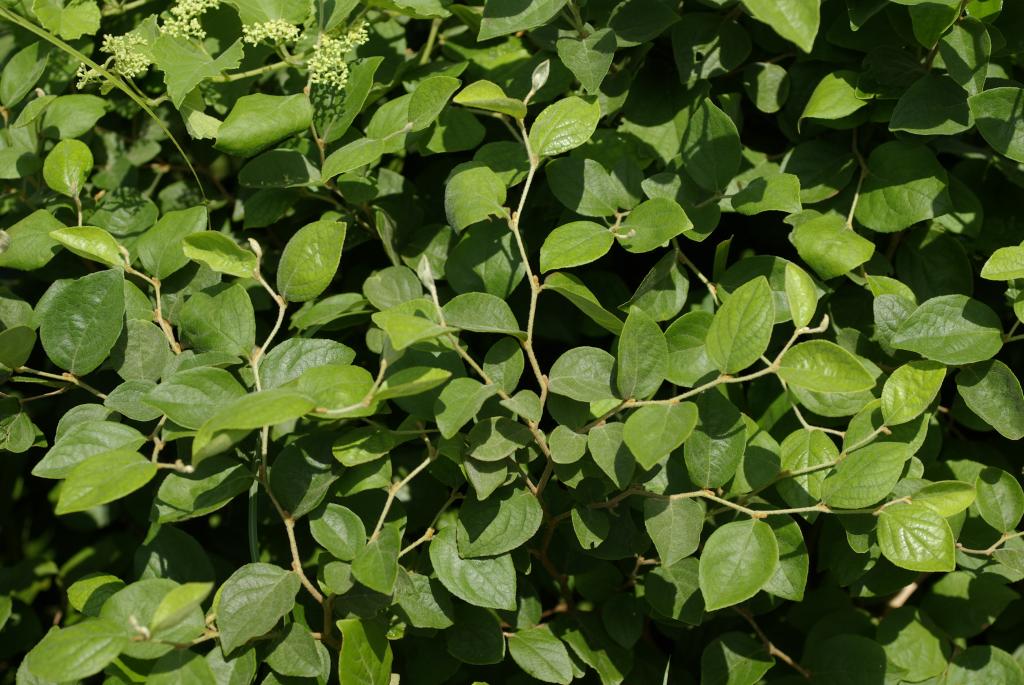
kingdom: Plantae
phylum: Tracheophyta
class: Magnoliopsida
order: Ericales
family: Styracaceae
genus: Styrax
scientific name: Styrax faberi
